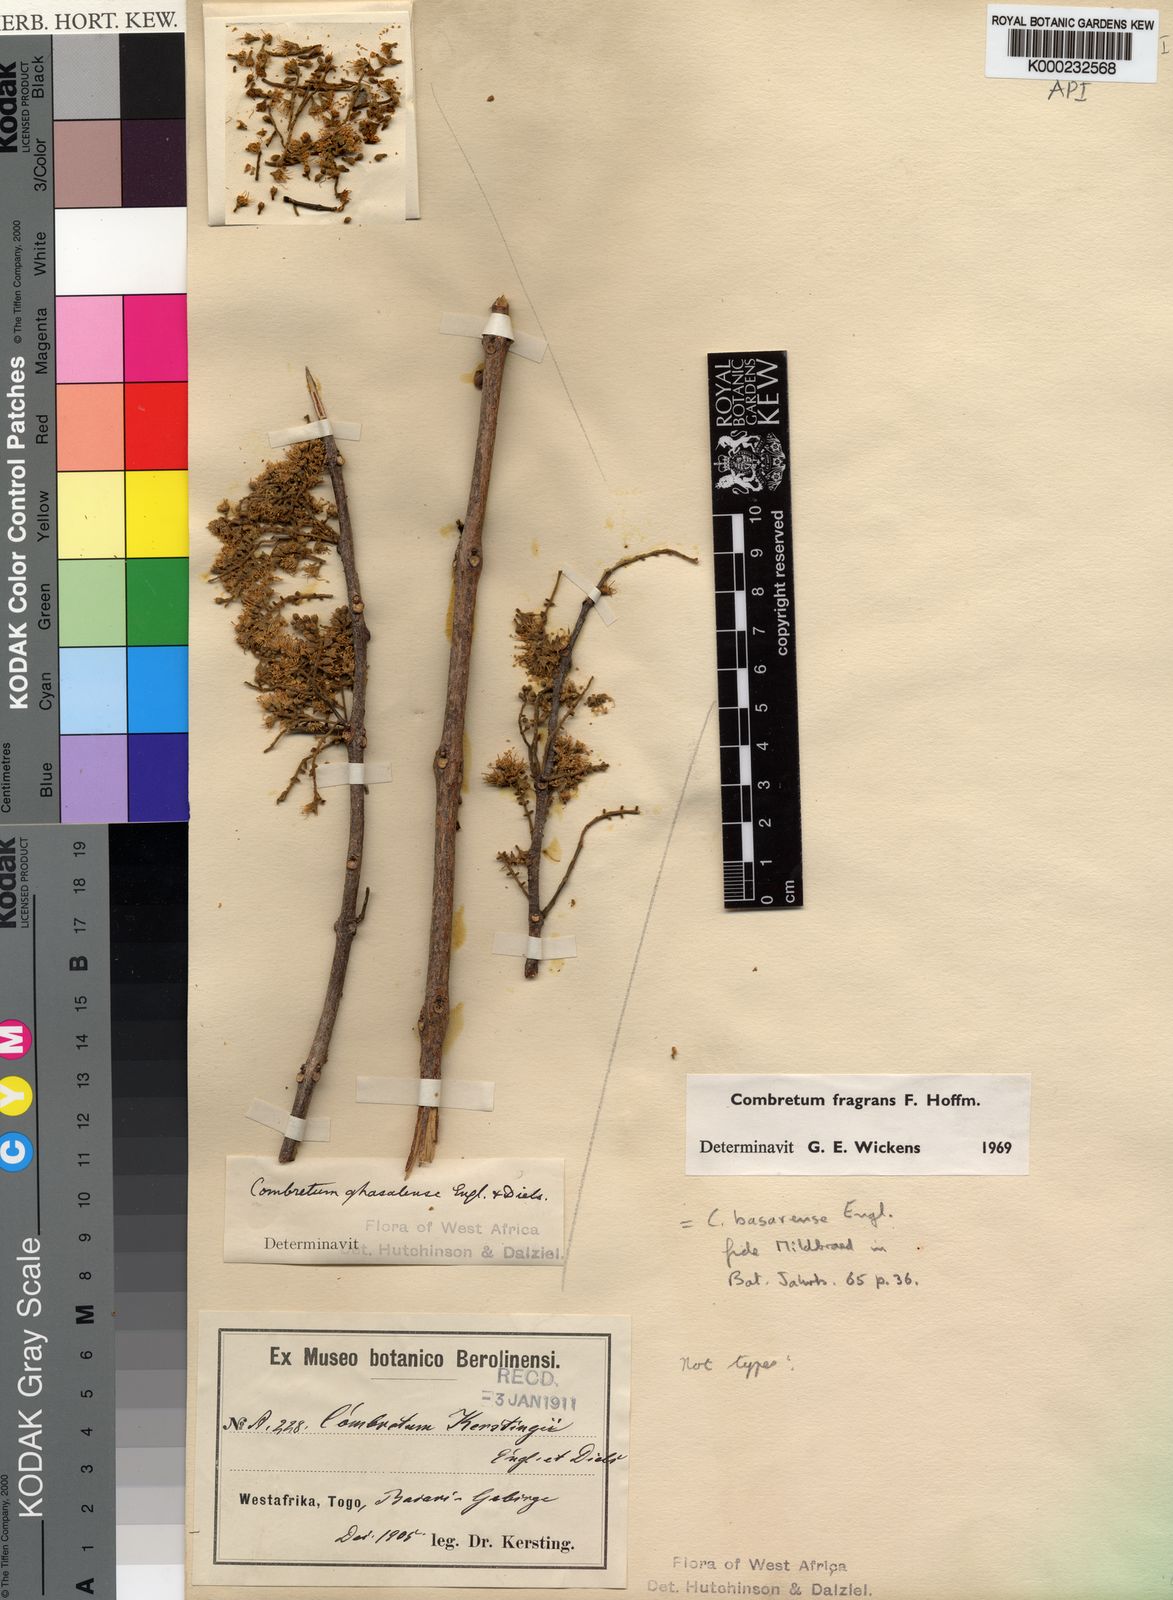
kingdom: Plantae
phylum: Tracheophyta
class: Magnoliopsida
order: Myrtales
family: Combretaceae
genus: Combretum
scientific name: Combretum adenogonium
